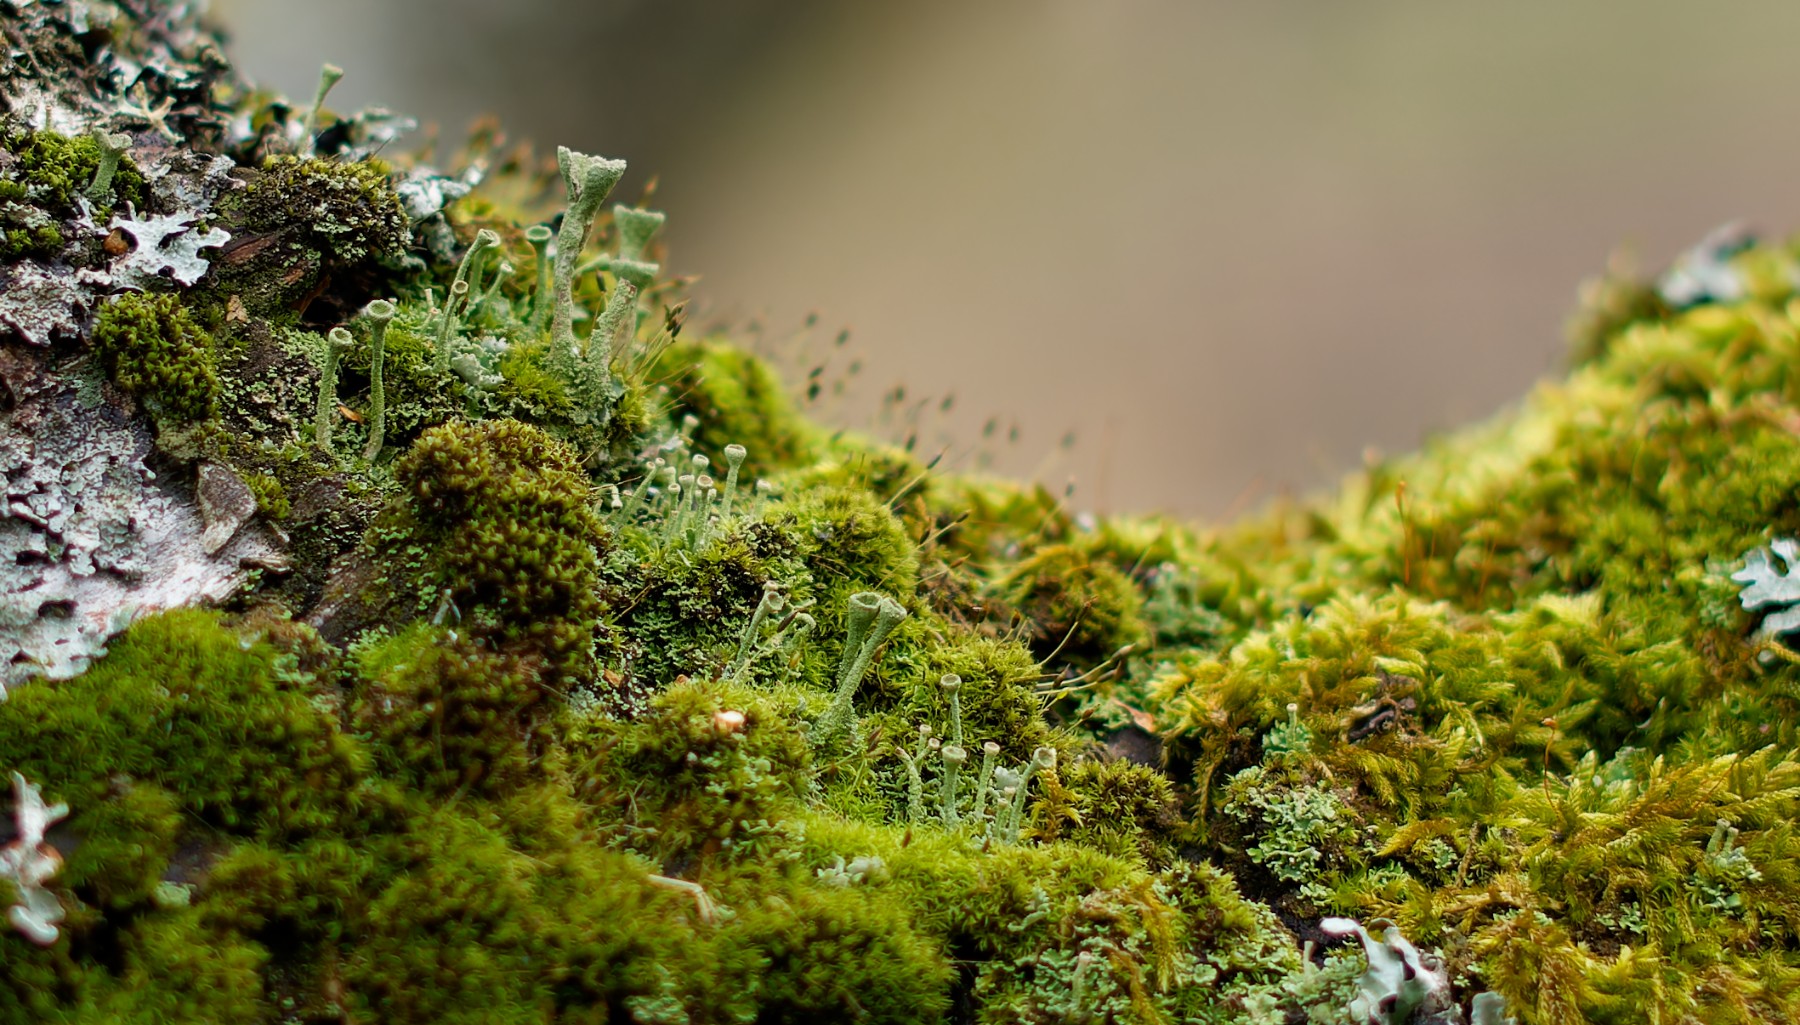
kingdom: Fungi
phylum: Ascomycota
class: Lecanoromycetes
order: Lecanorales
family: Cladoniaceae
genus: Cladonia
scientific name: Cladonia fimbriata
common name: bleggrøn bægerlav
